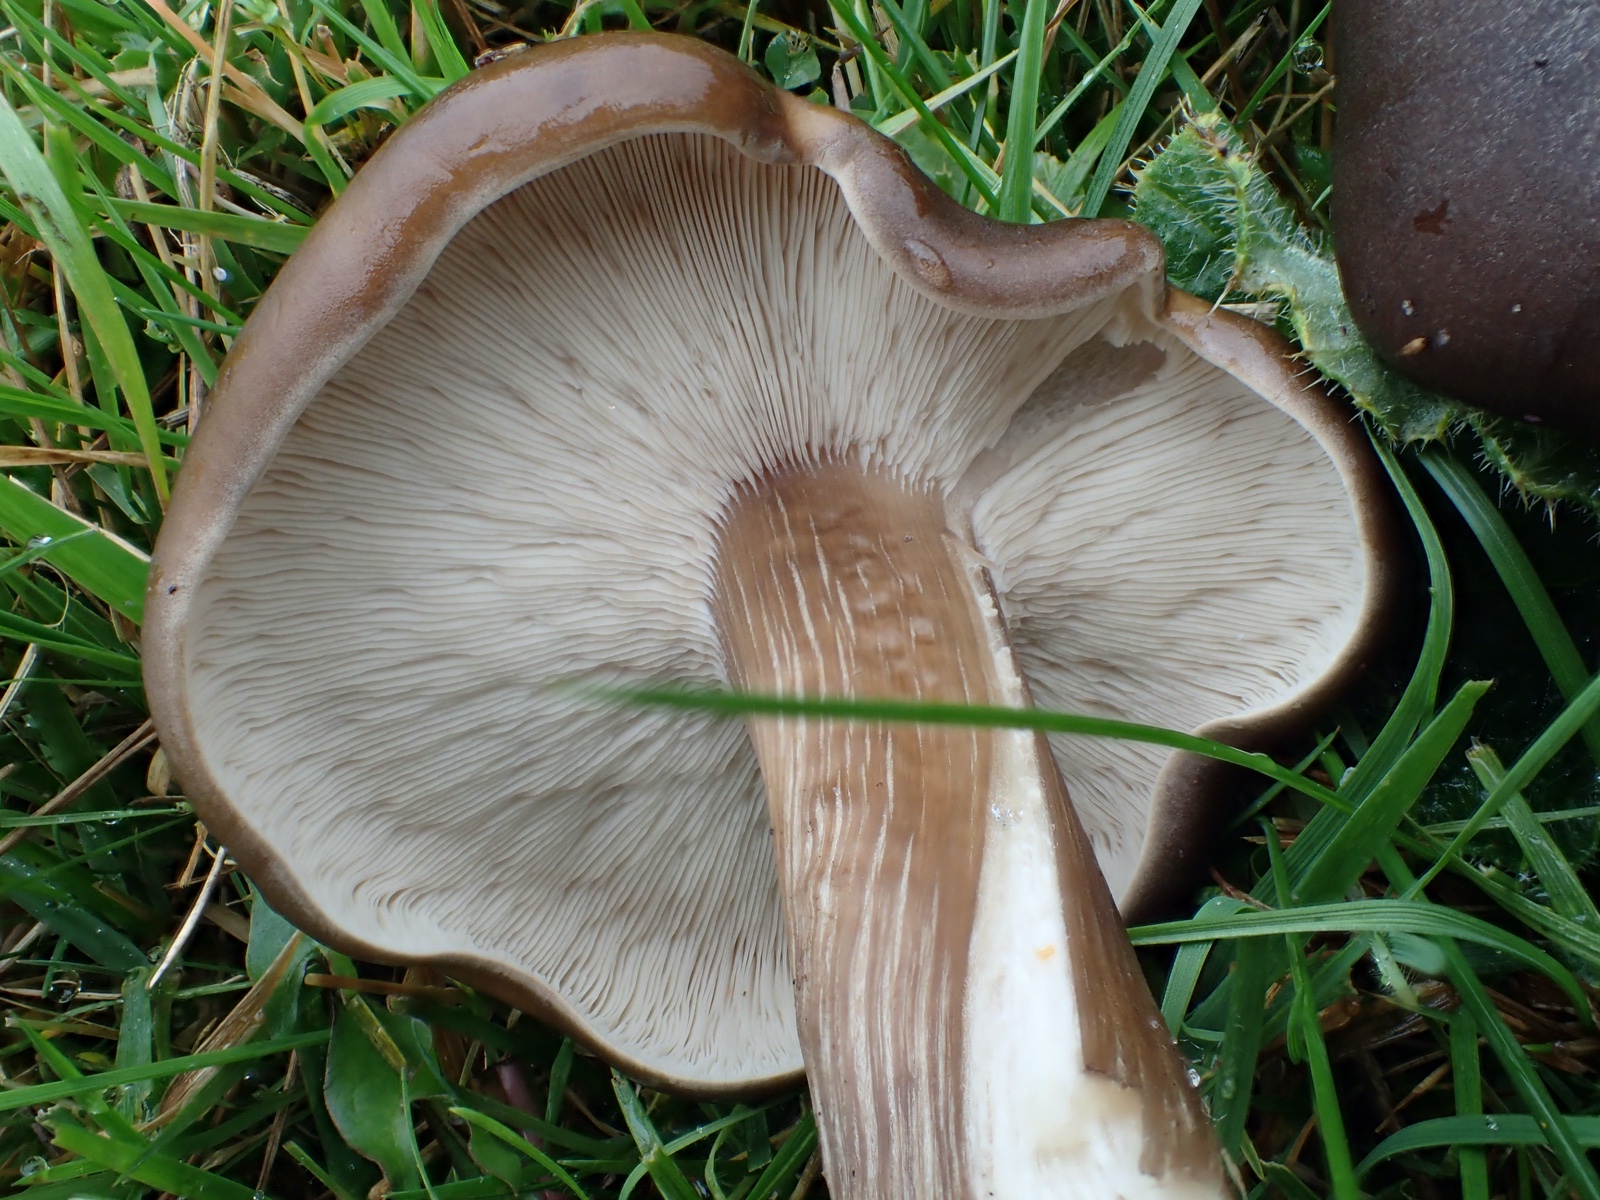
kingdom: Fungi
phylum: Basidiomycota
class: Agaricomycetes
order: Agaricales
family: Tricholomataceae
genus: Melanoleuca
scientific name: Melanoleuca
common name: munkehat
